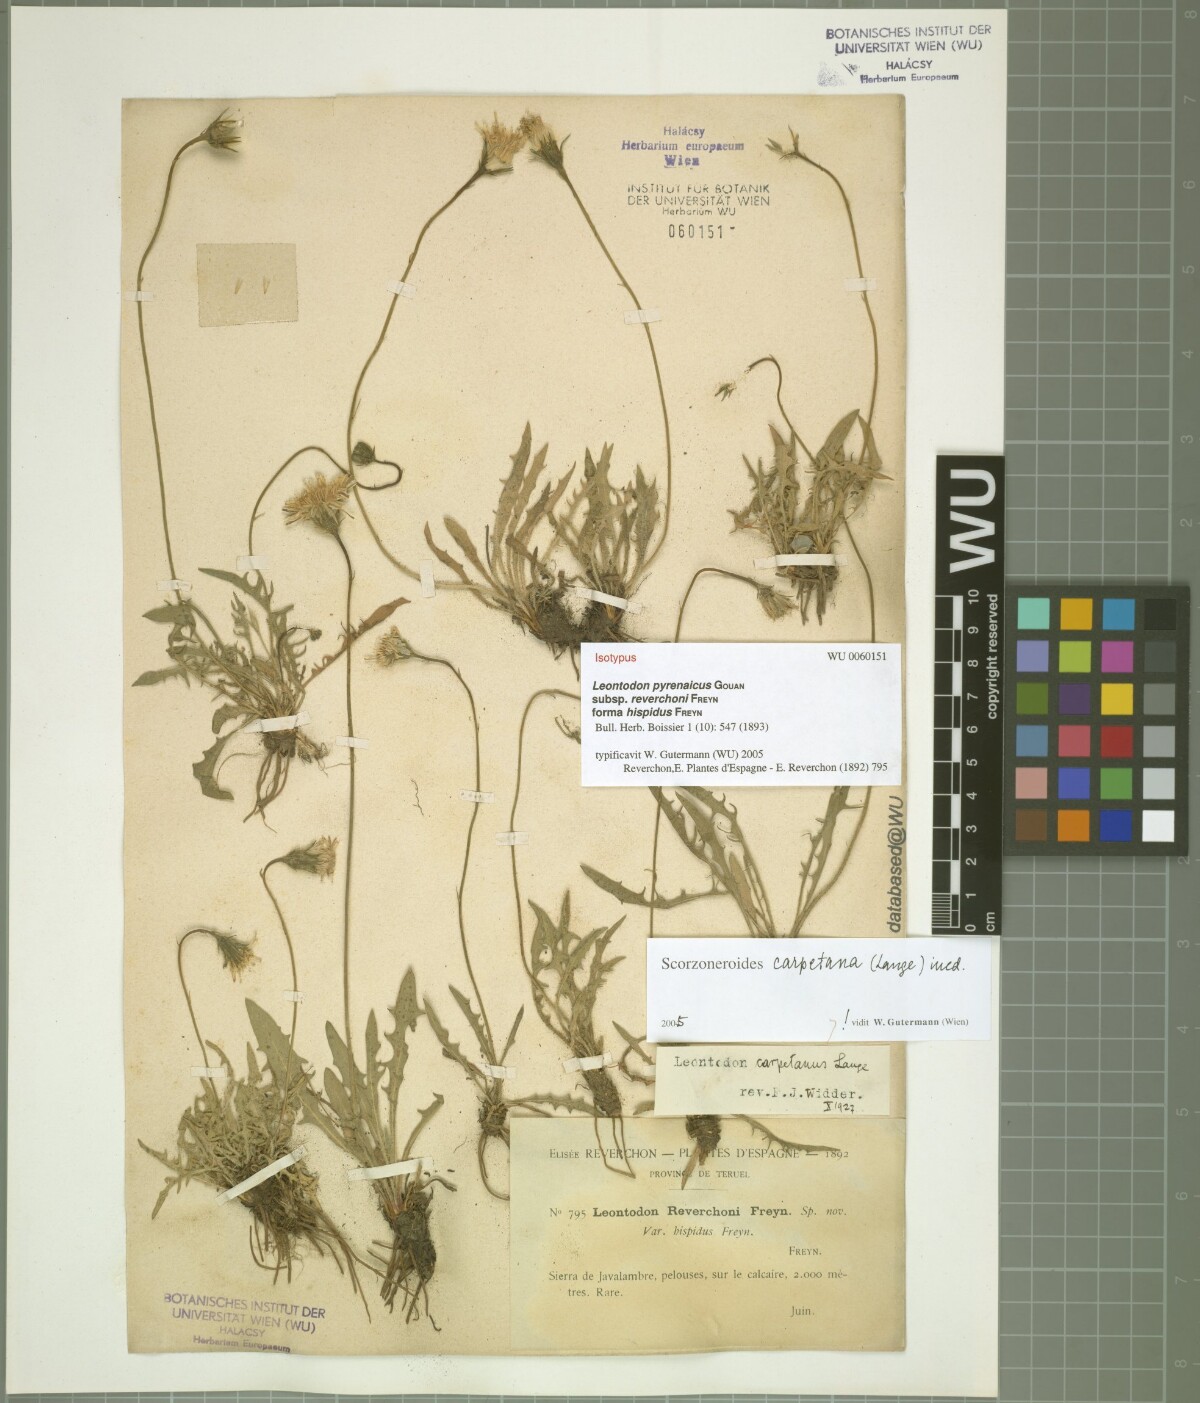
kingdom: Plantae
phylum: Tracheophyta
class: Magnoliopsida
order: Asterales
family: Asteraceae
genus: Scorzoneroides
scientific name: Scorzoneroides pyrenaica
